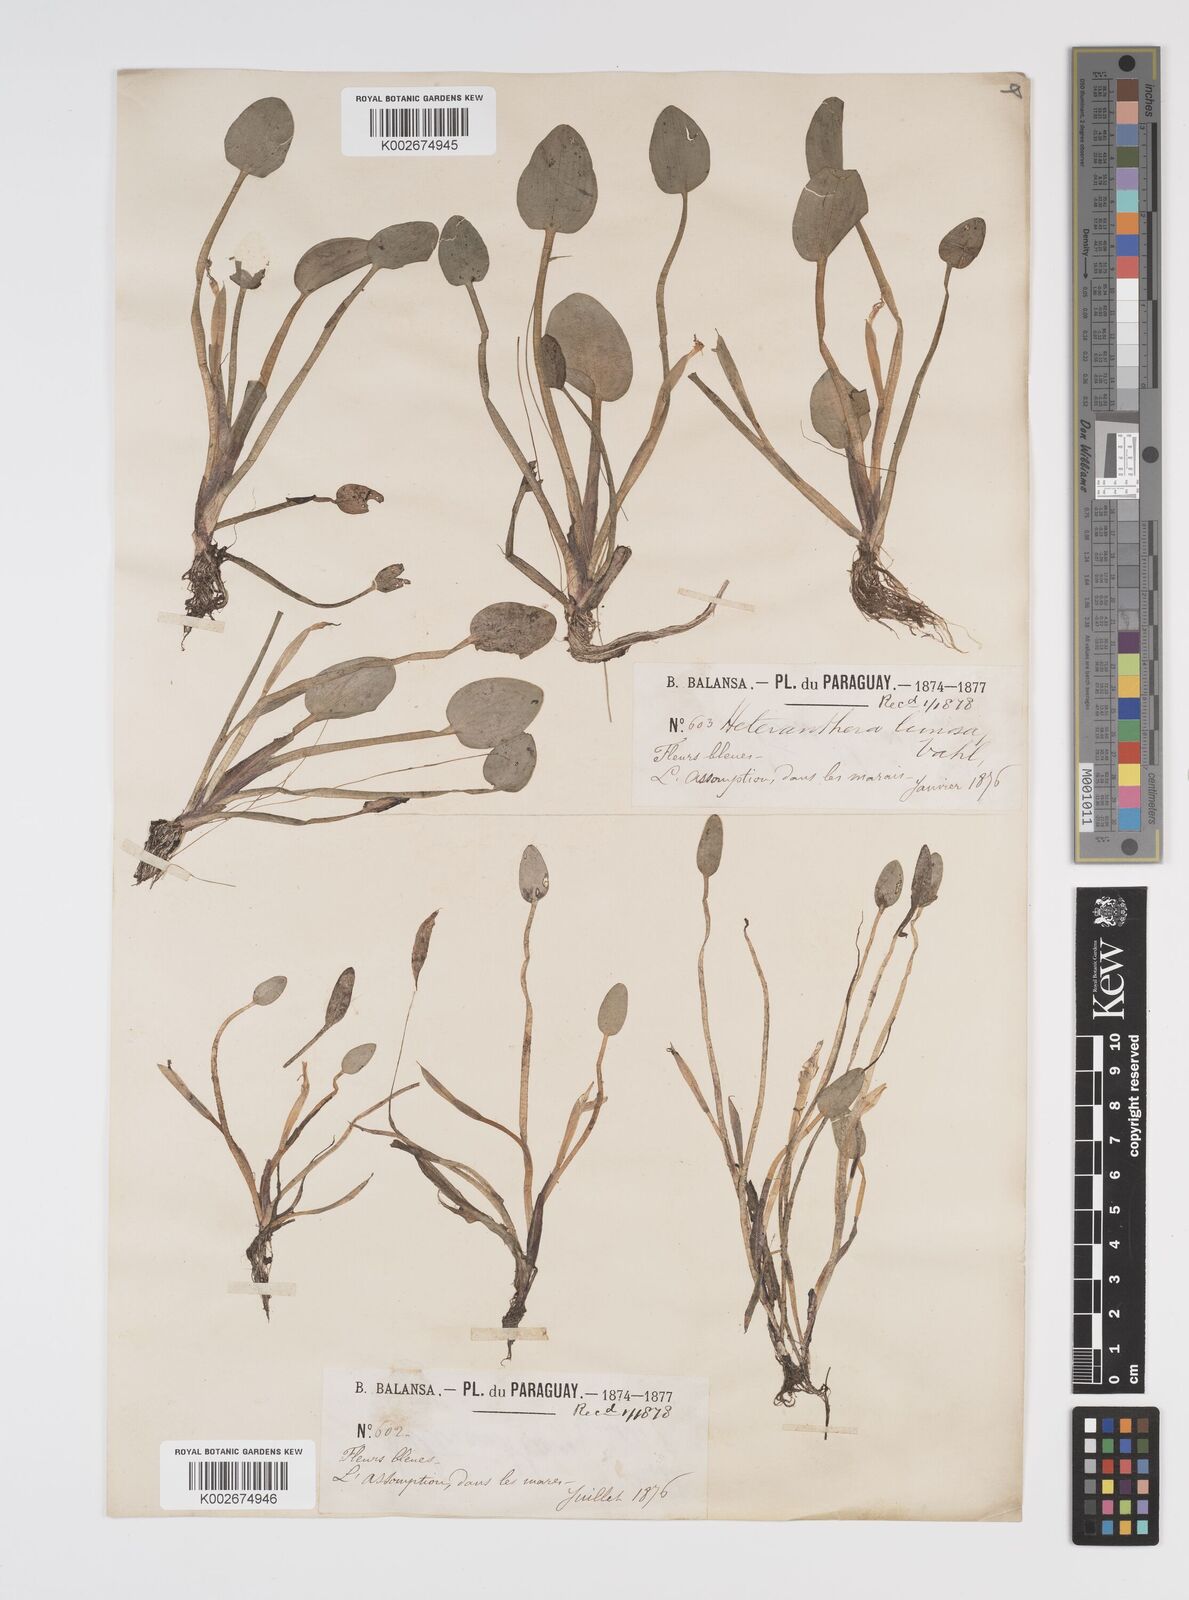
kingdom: Plantae
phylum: Tracheophyta
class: Liliopsida
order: Commelinales
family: Pontederiaceae
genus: Heteranthera
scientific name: Heteranthera limosa
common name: Blue mud-plantain
